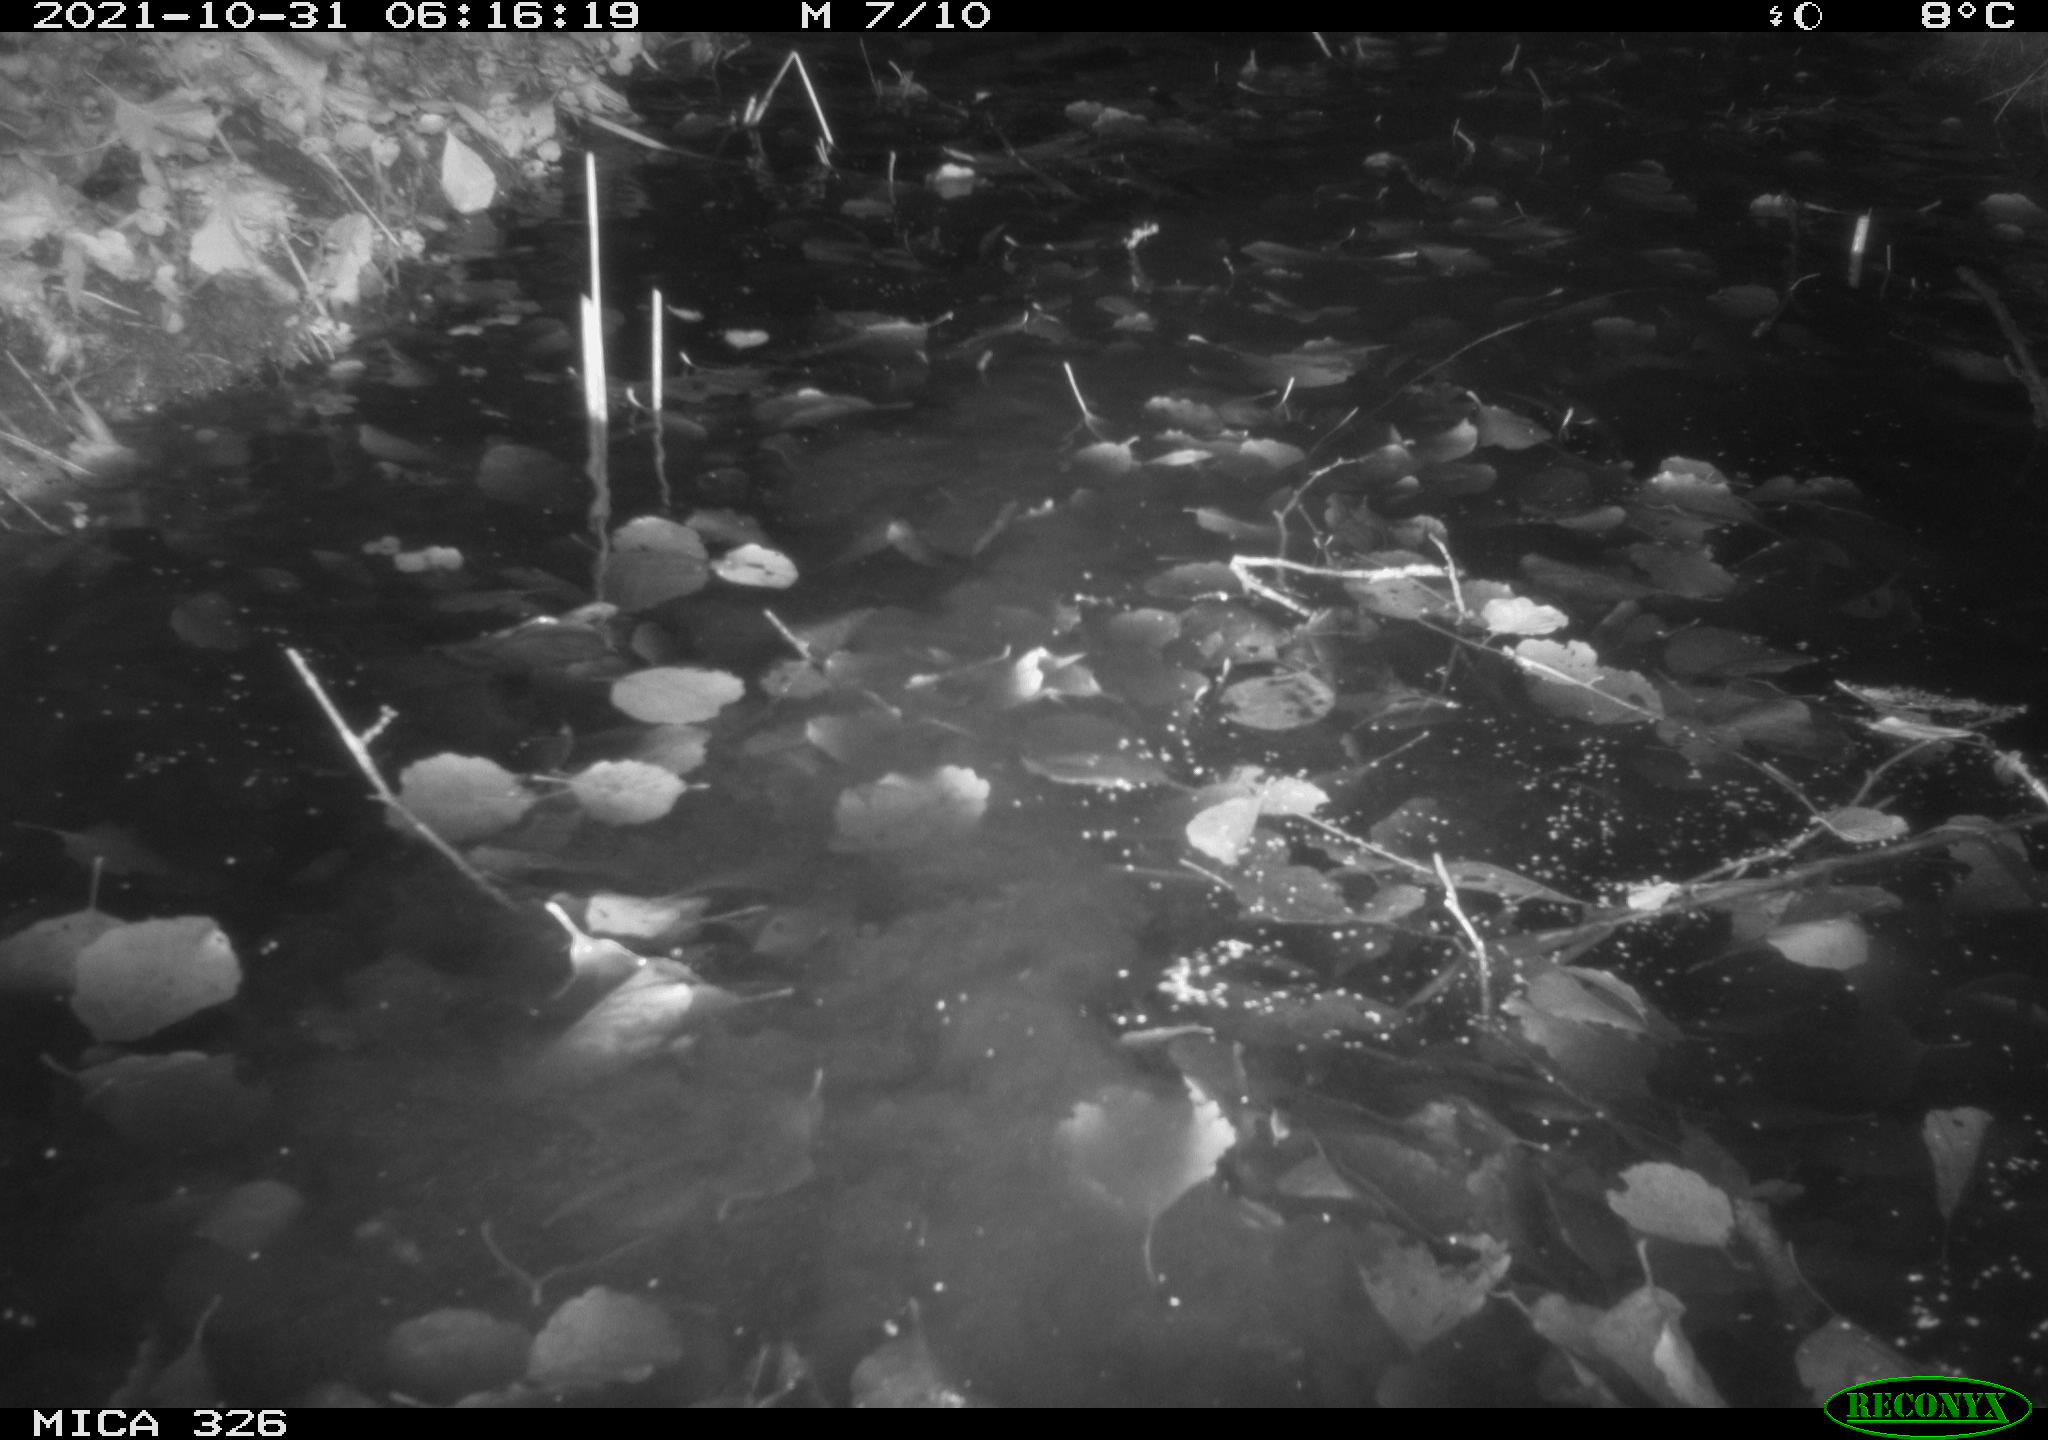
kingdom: Animalia
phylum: Chordata
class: Mammalia
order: Rodentia
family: Myocastoridae
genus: Myocastor
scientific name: Myocastor coypus
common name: Coypu
